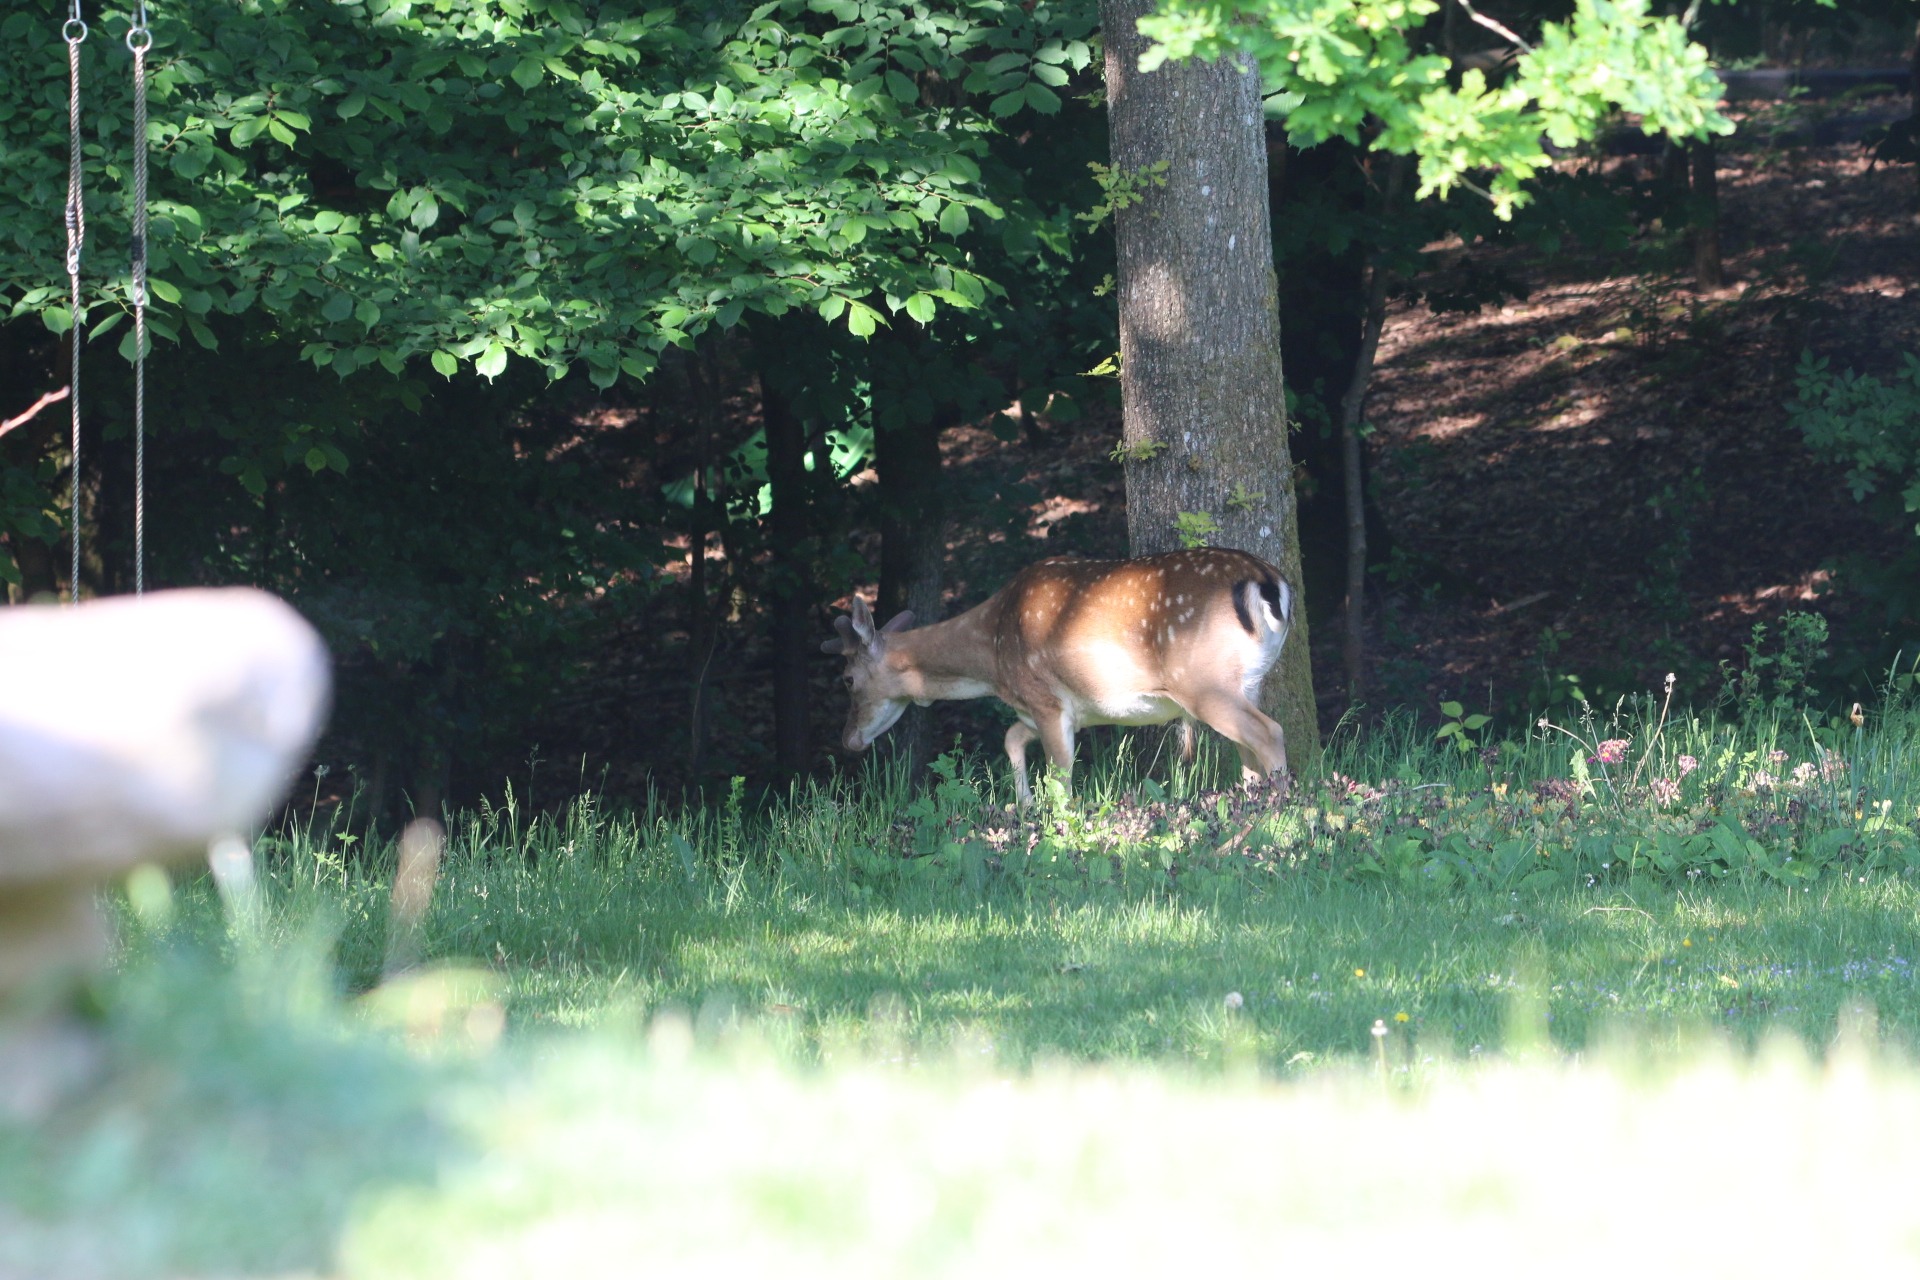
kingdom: Animalia
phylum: Chordata
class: Mammalia
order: Artiodactyla
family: Cervidae
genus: Dama
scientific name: Dama dama
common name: Dådyr
